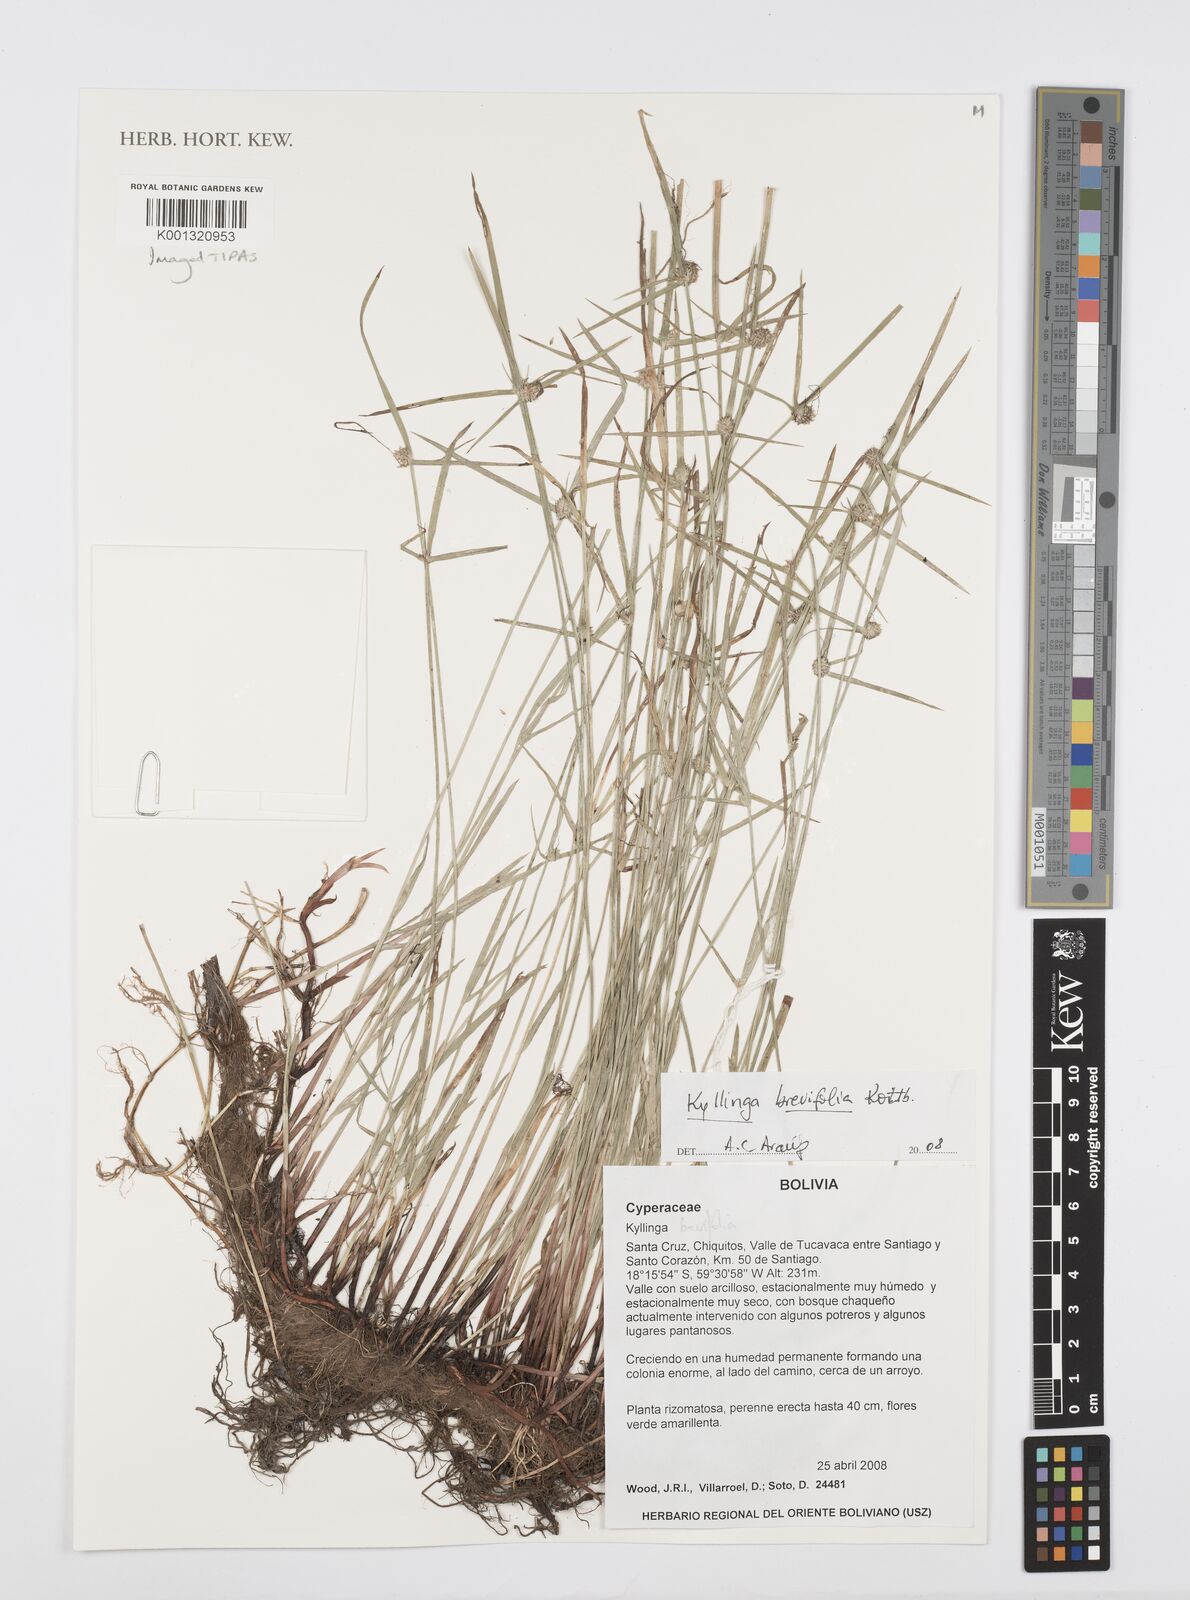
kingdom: Plantae
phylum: Tracheophyta
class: Liliopsida
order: Poales
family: Cyperaceae
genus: Cyperus
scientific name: Cyperus brevifolius
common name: Globe kyllinga
